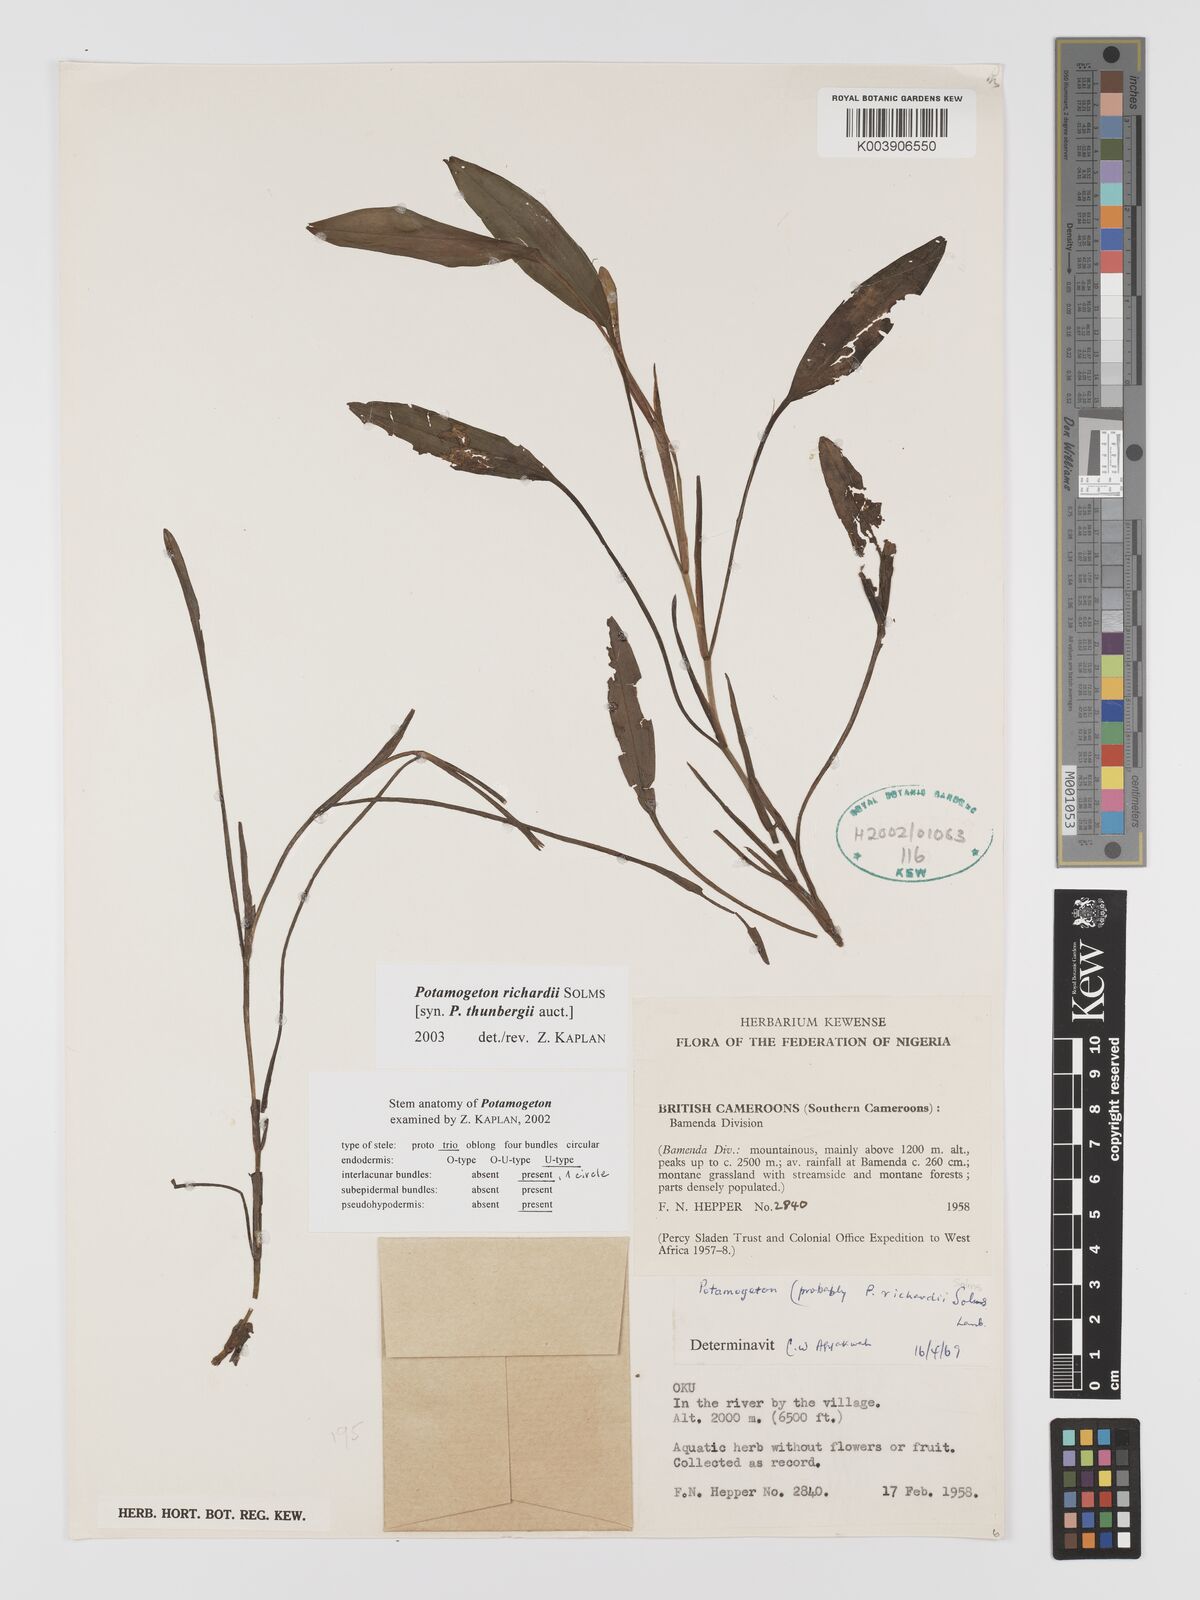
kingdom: Plantae
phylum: Tracheophyta
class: Liliopsida
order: Alismatales
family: Potamogetonaceae
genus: Potamogeton
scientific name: Potamogeton nodosus
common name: Loddon pondweed
